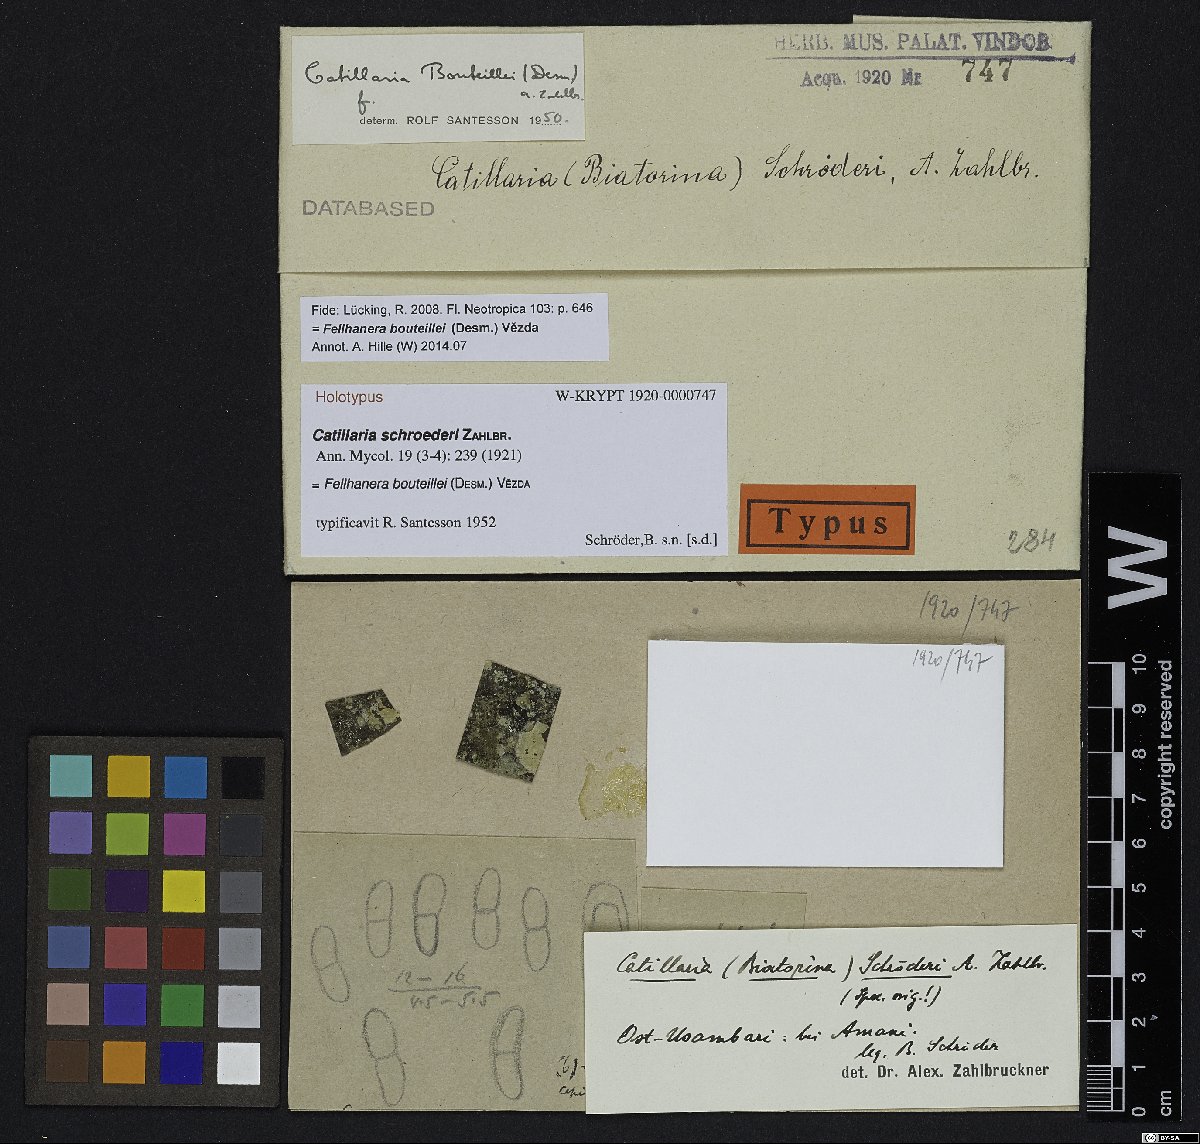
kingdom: Fungi
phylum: Ascomycota
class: Lecanoromycetes
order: Lecanorales
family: Catillariaceae
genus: Catillaria
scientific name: Catillaria
